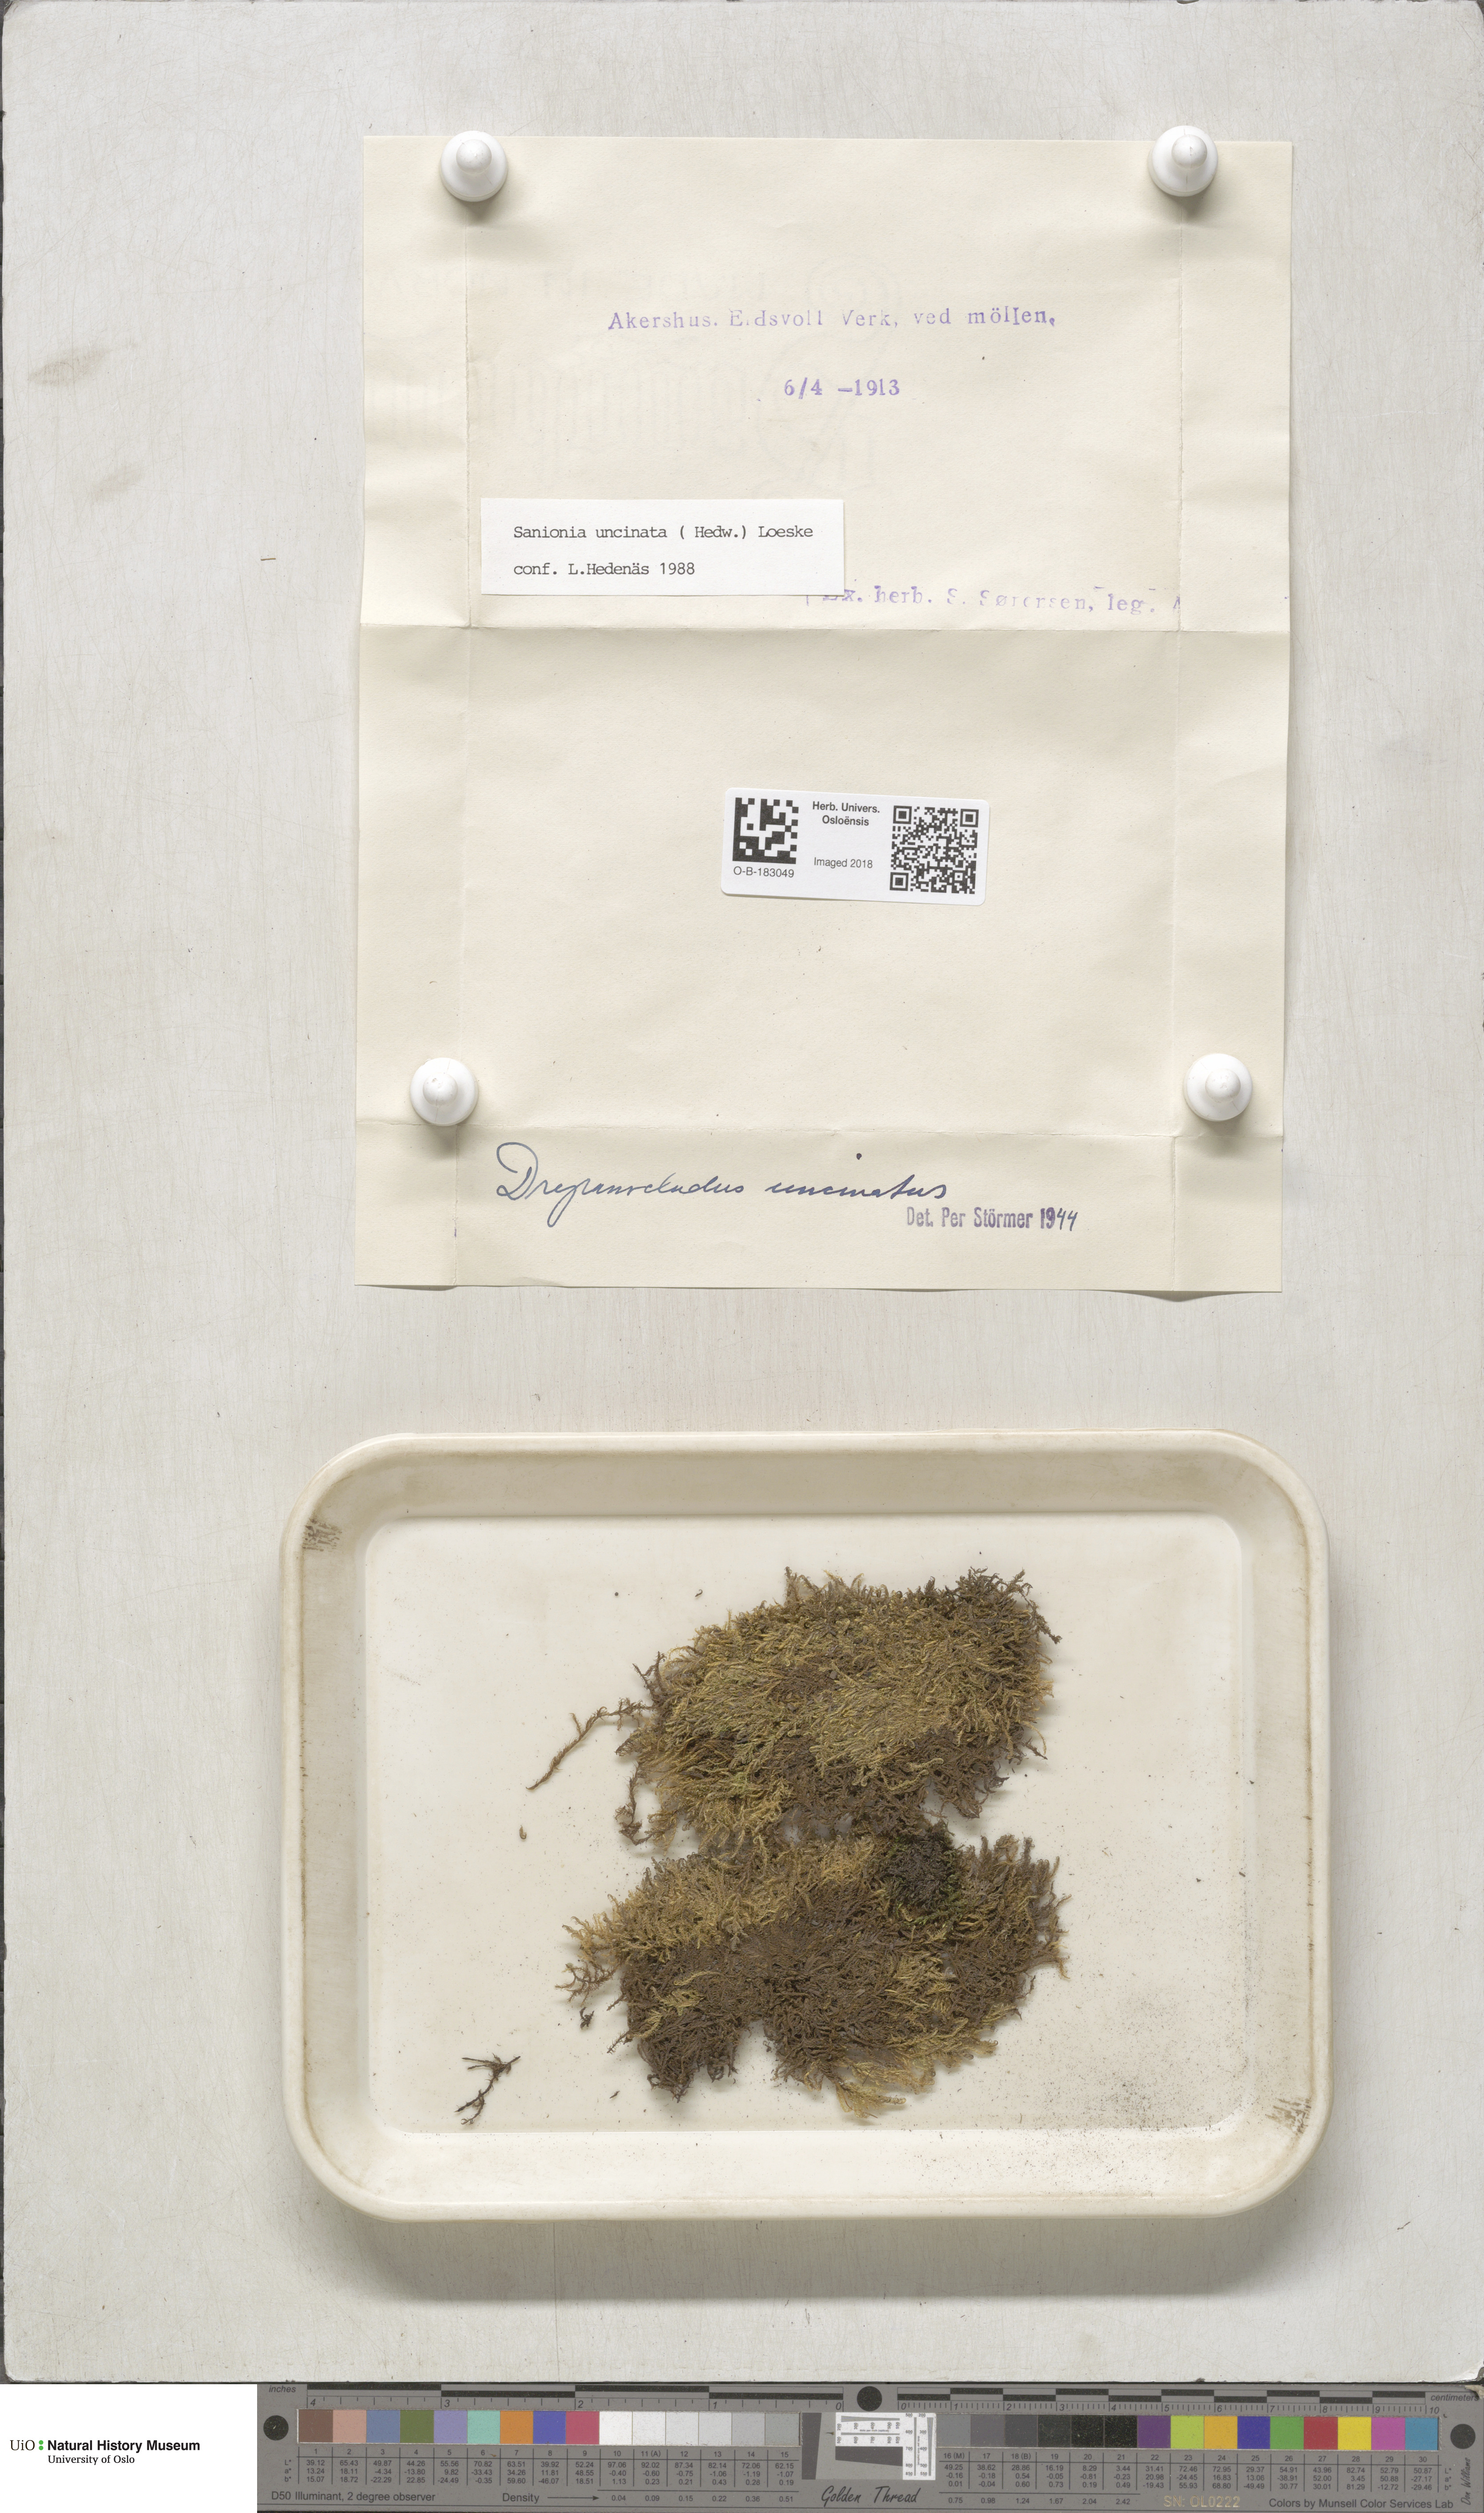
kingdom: Plantae
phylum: Bryophyta
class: Bryopsida
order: Hypnales
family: Scorpidiaceae
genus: Sanionia
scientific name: Sanionia uncinata
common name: Sickle moss
